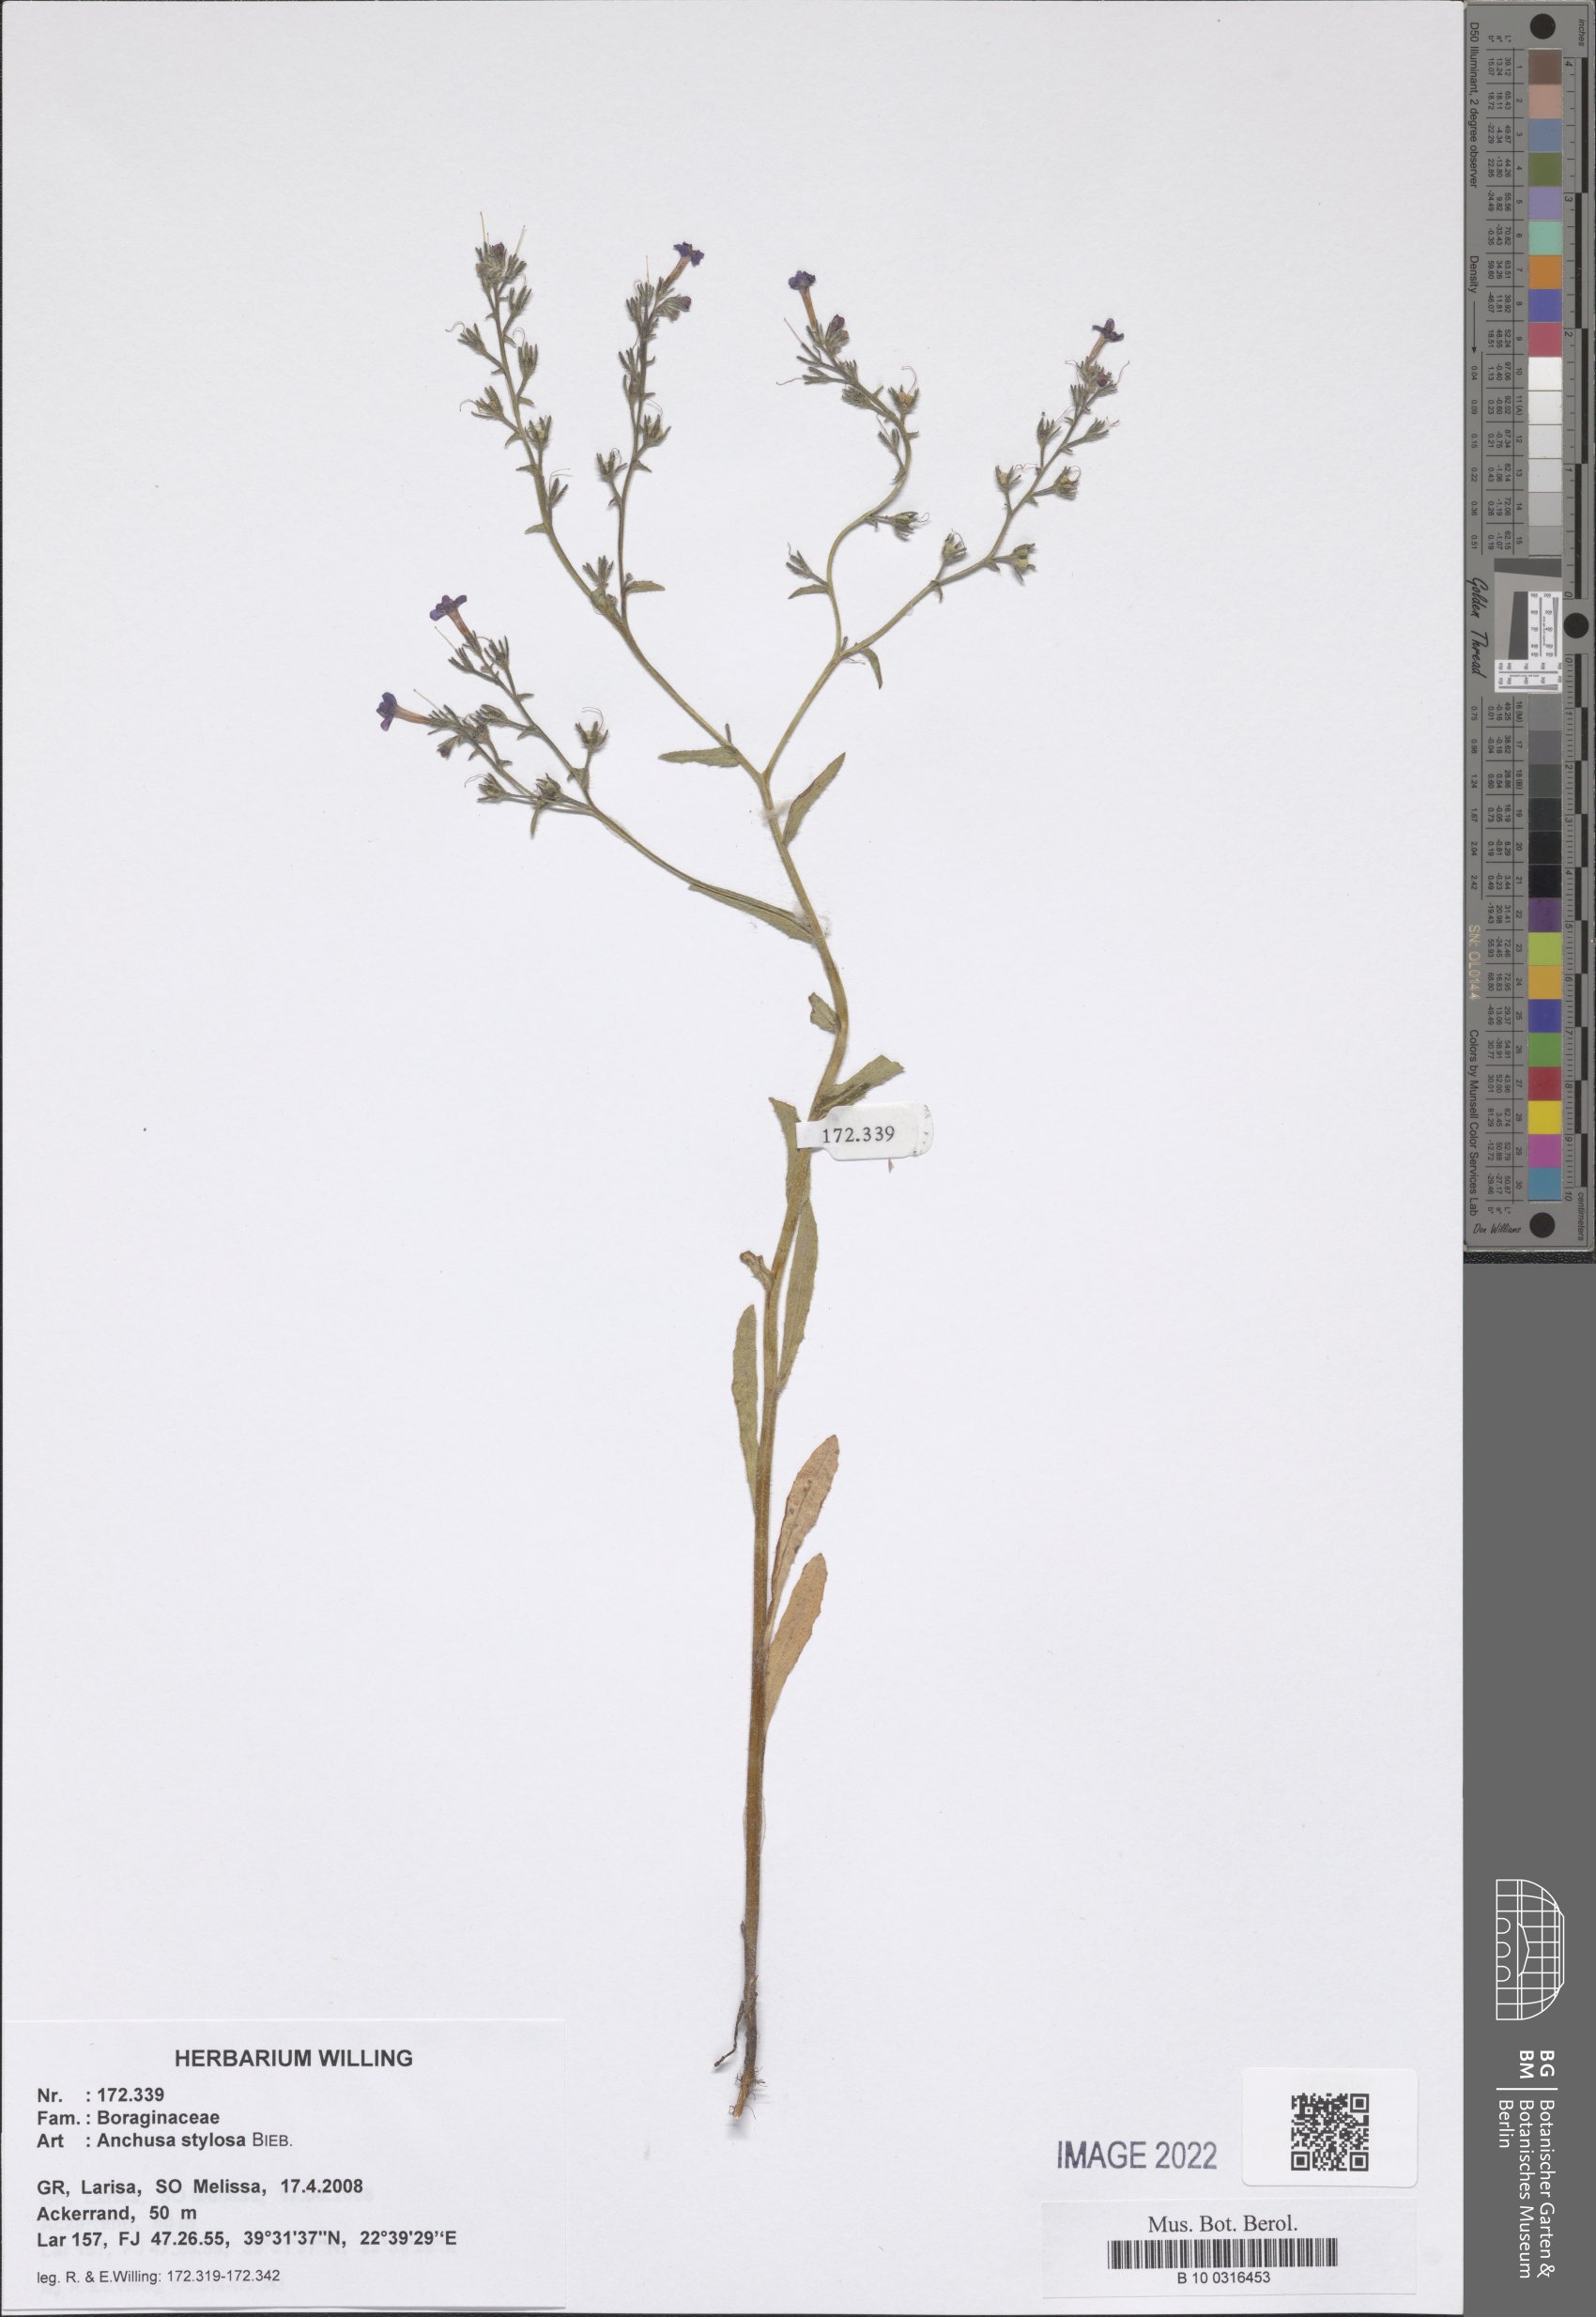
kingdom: Plantae
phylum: Tracheophyta
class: Magnoliopsida
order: Boraginales
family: Boraginaceae
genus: Anchusa
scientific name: Anchusa stylosa
